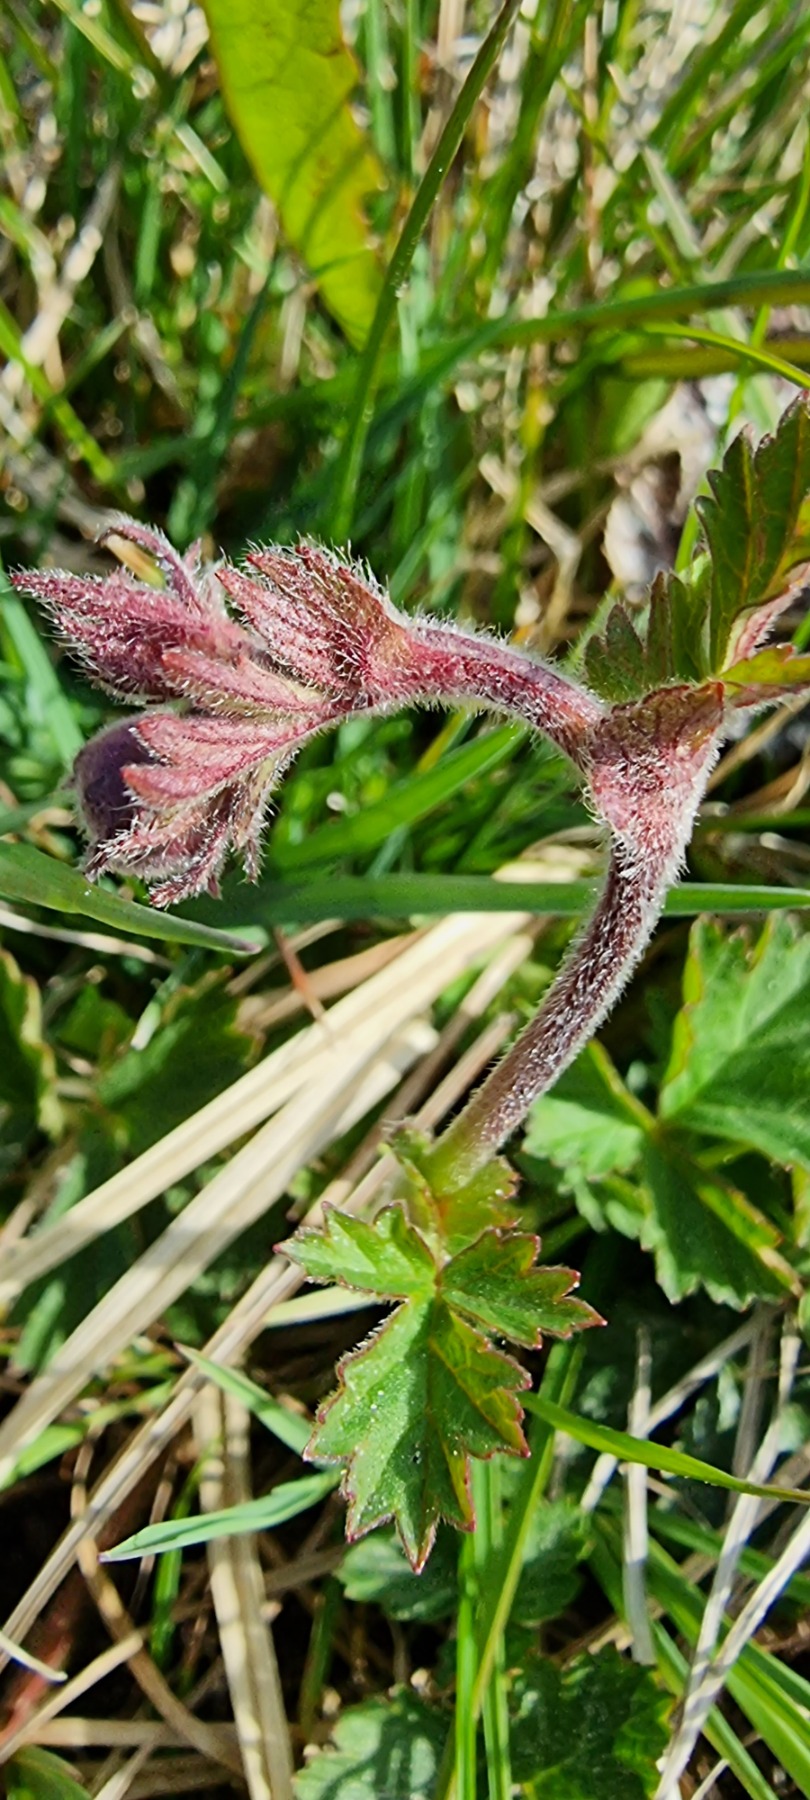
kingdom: Plantae
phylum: Tracheophyta
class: Magnoliopsida
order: Rosales
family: Rosaceae
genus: Geum
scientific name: Geum rivale
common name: Eng-nellikerod
